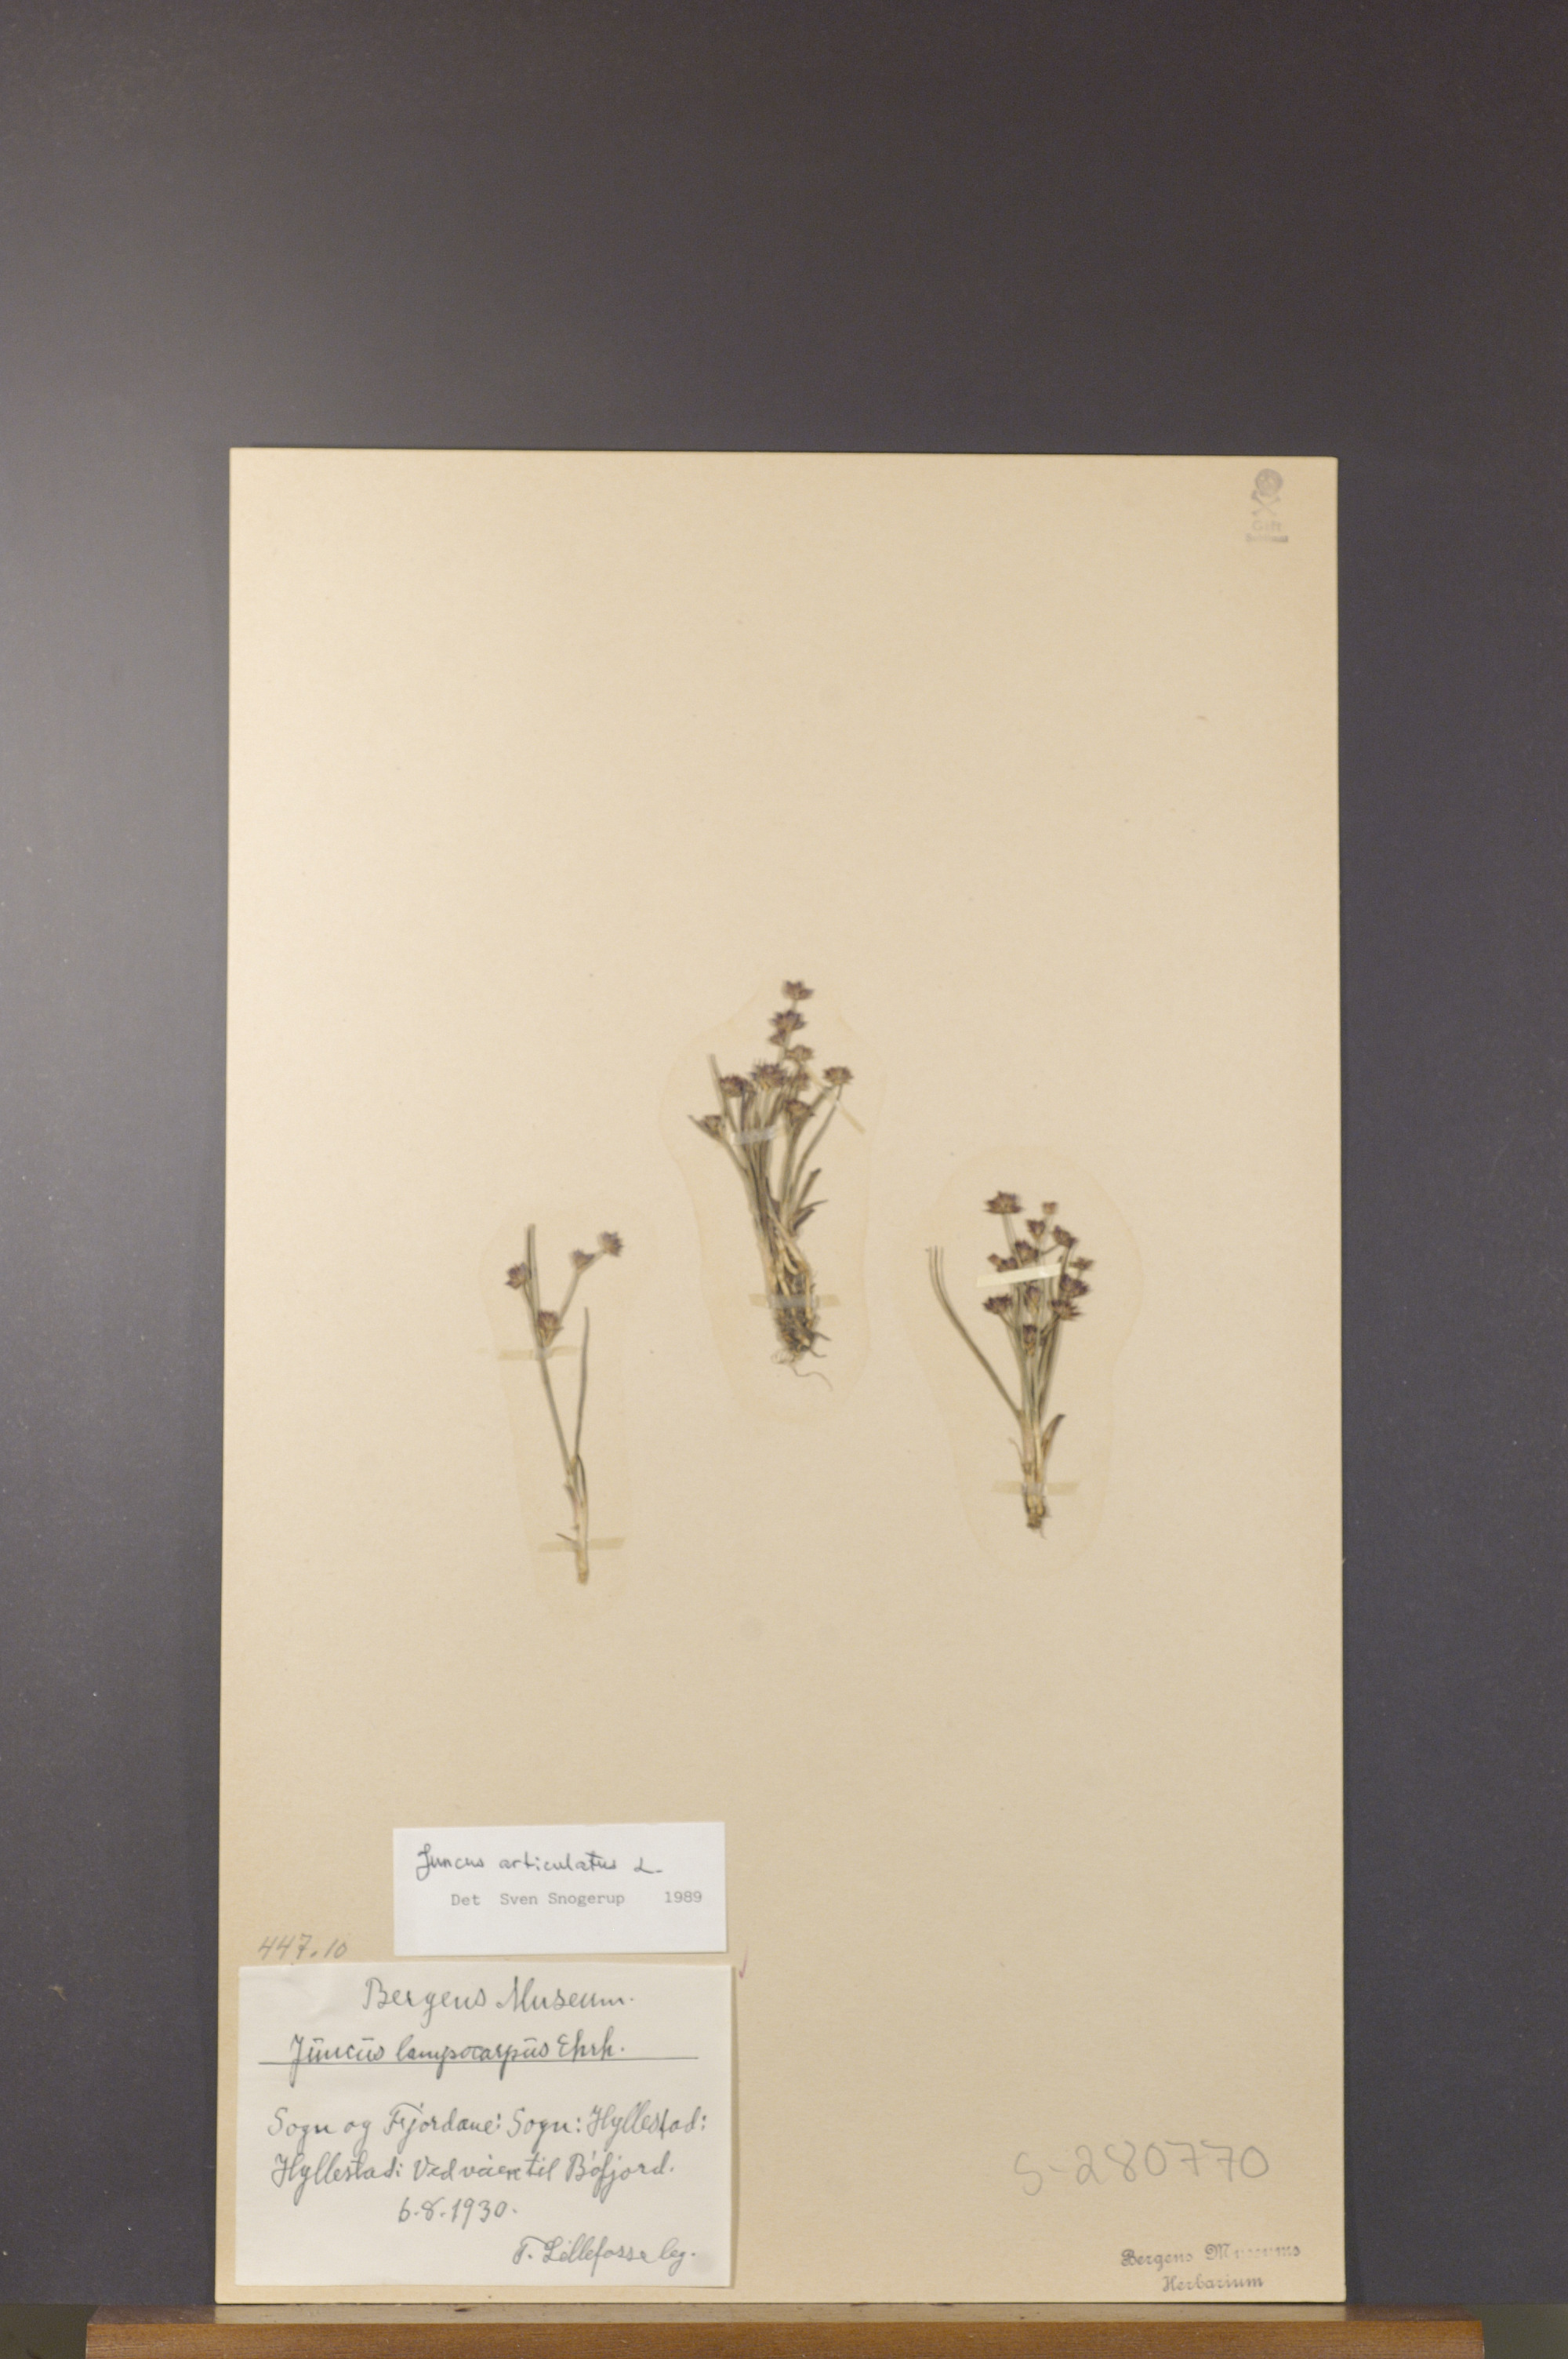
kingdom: Plantae
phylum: Tracheophyta
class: Liliopsida
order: Poales
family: Juncaceae
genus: Juncus
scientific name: Juncus articulatus
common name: Jointed rush
